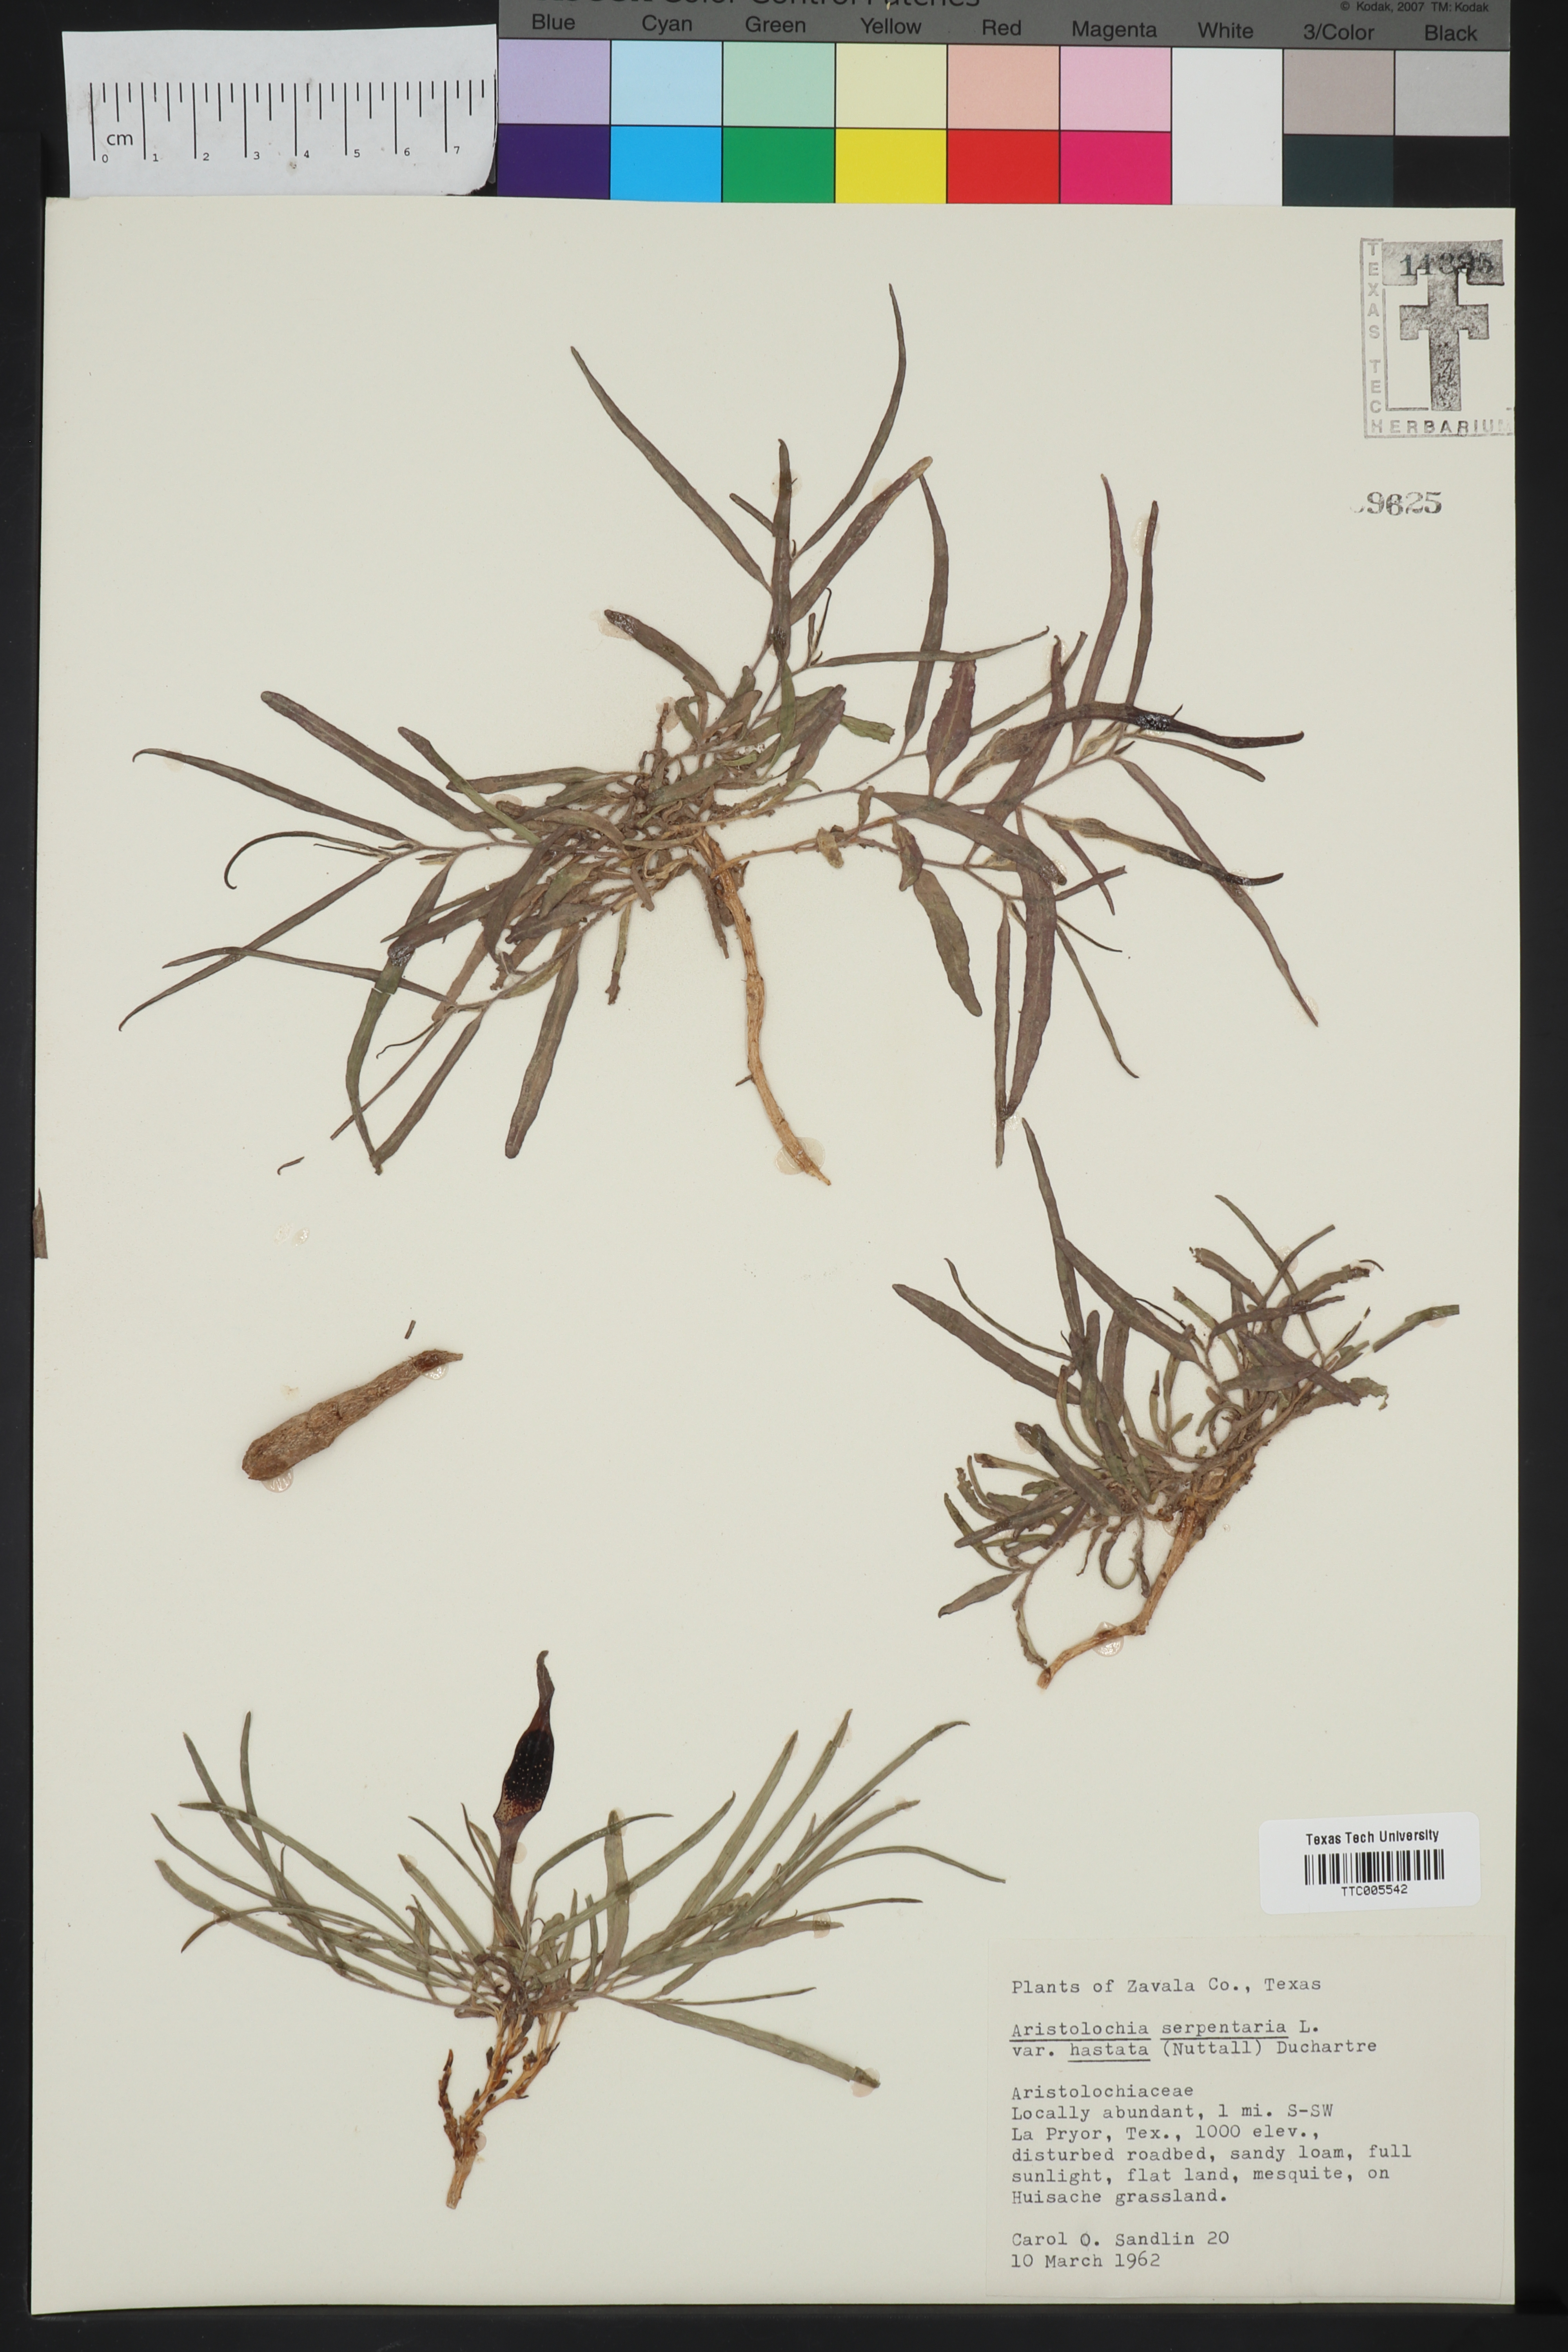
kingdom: Plantae
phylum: Tracheophyta
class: Magnoliopsida
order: Piperales
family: Aristolochiaceae
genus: Endodeca
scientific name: Endodeca serpentaria
